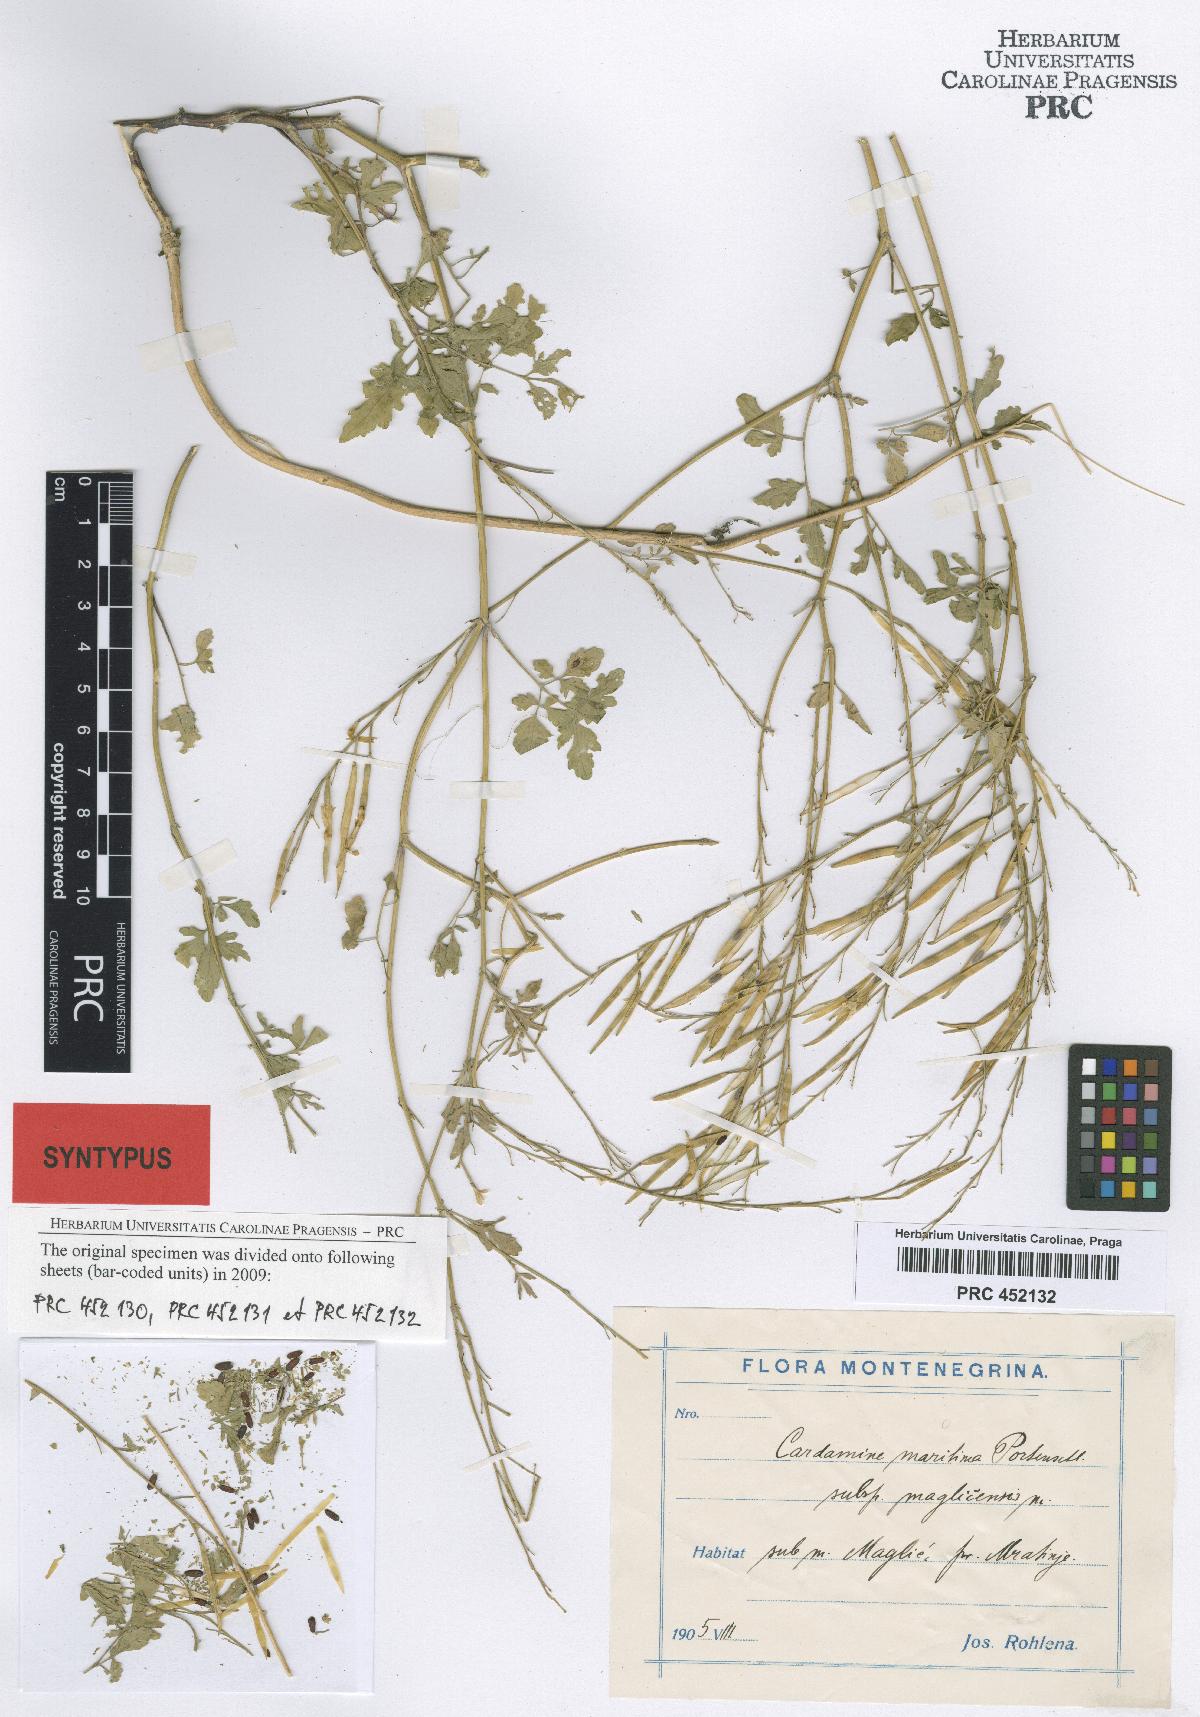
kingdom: Plantae
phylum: Tracheophyta
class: Magnoliopsida
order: Brassicales
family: Brassicaceae
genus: Cardamine
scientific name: Cardamine maritima
